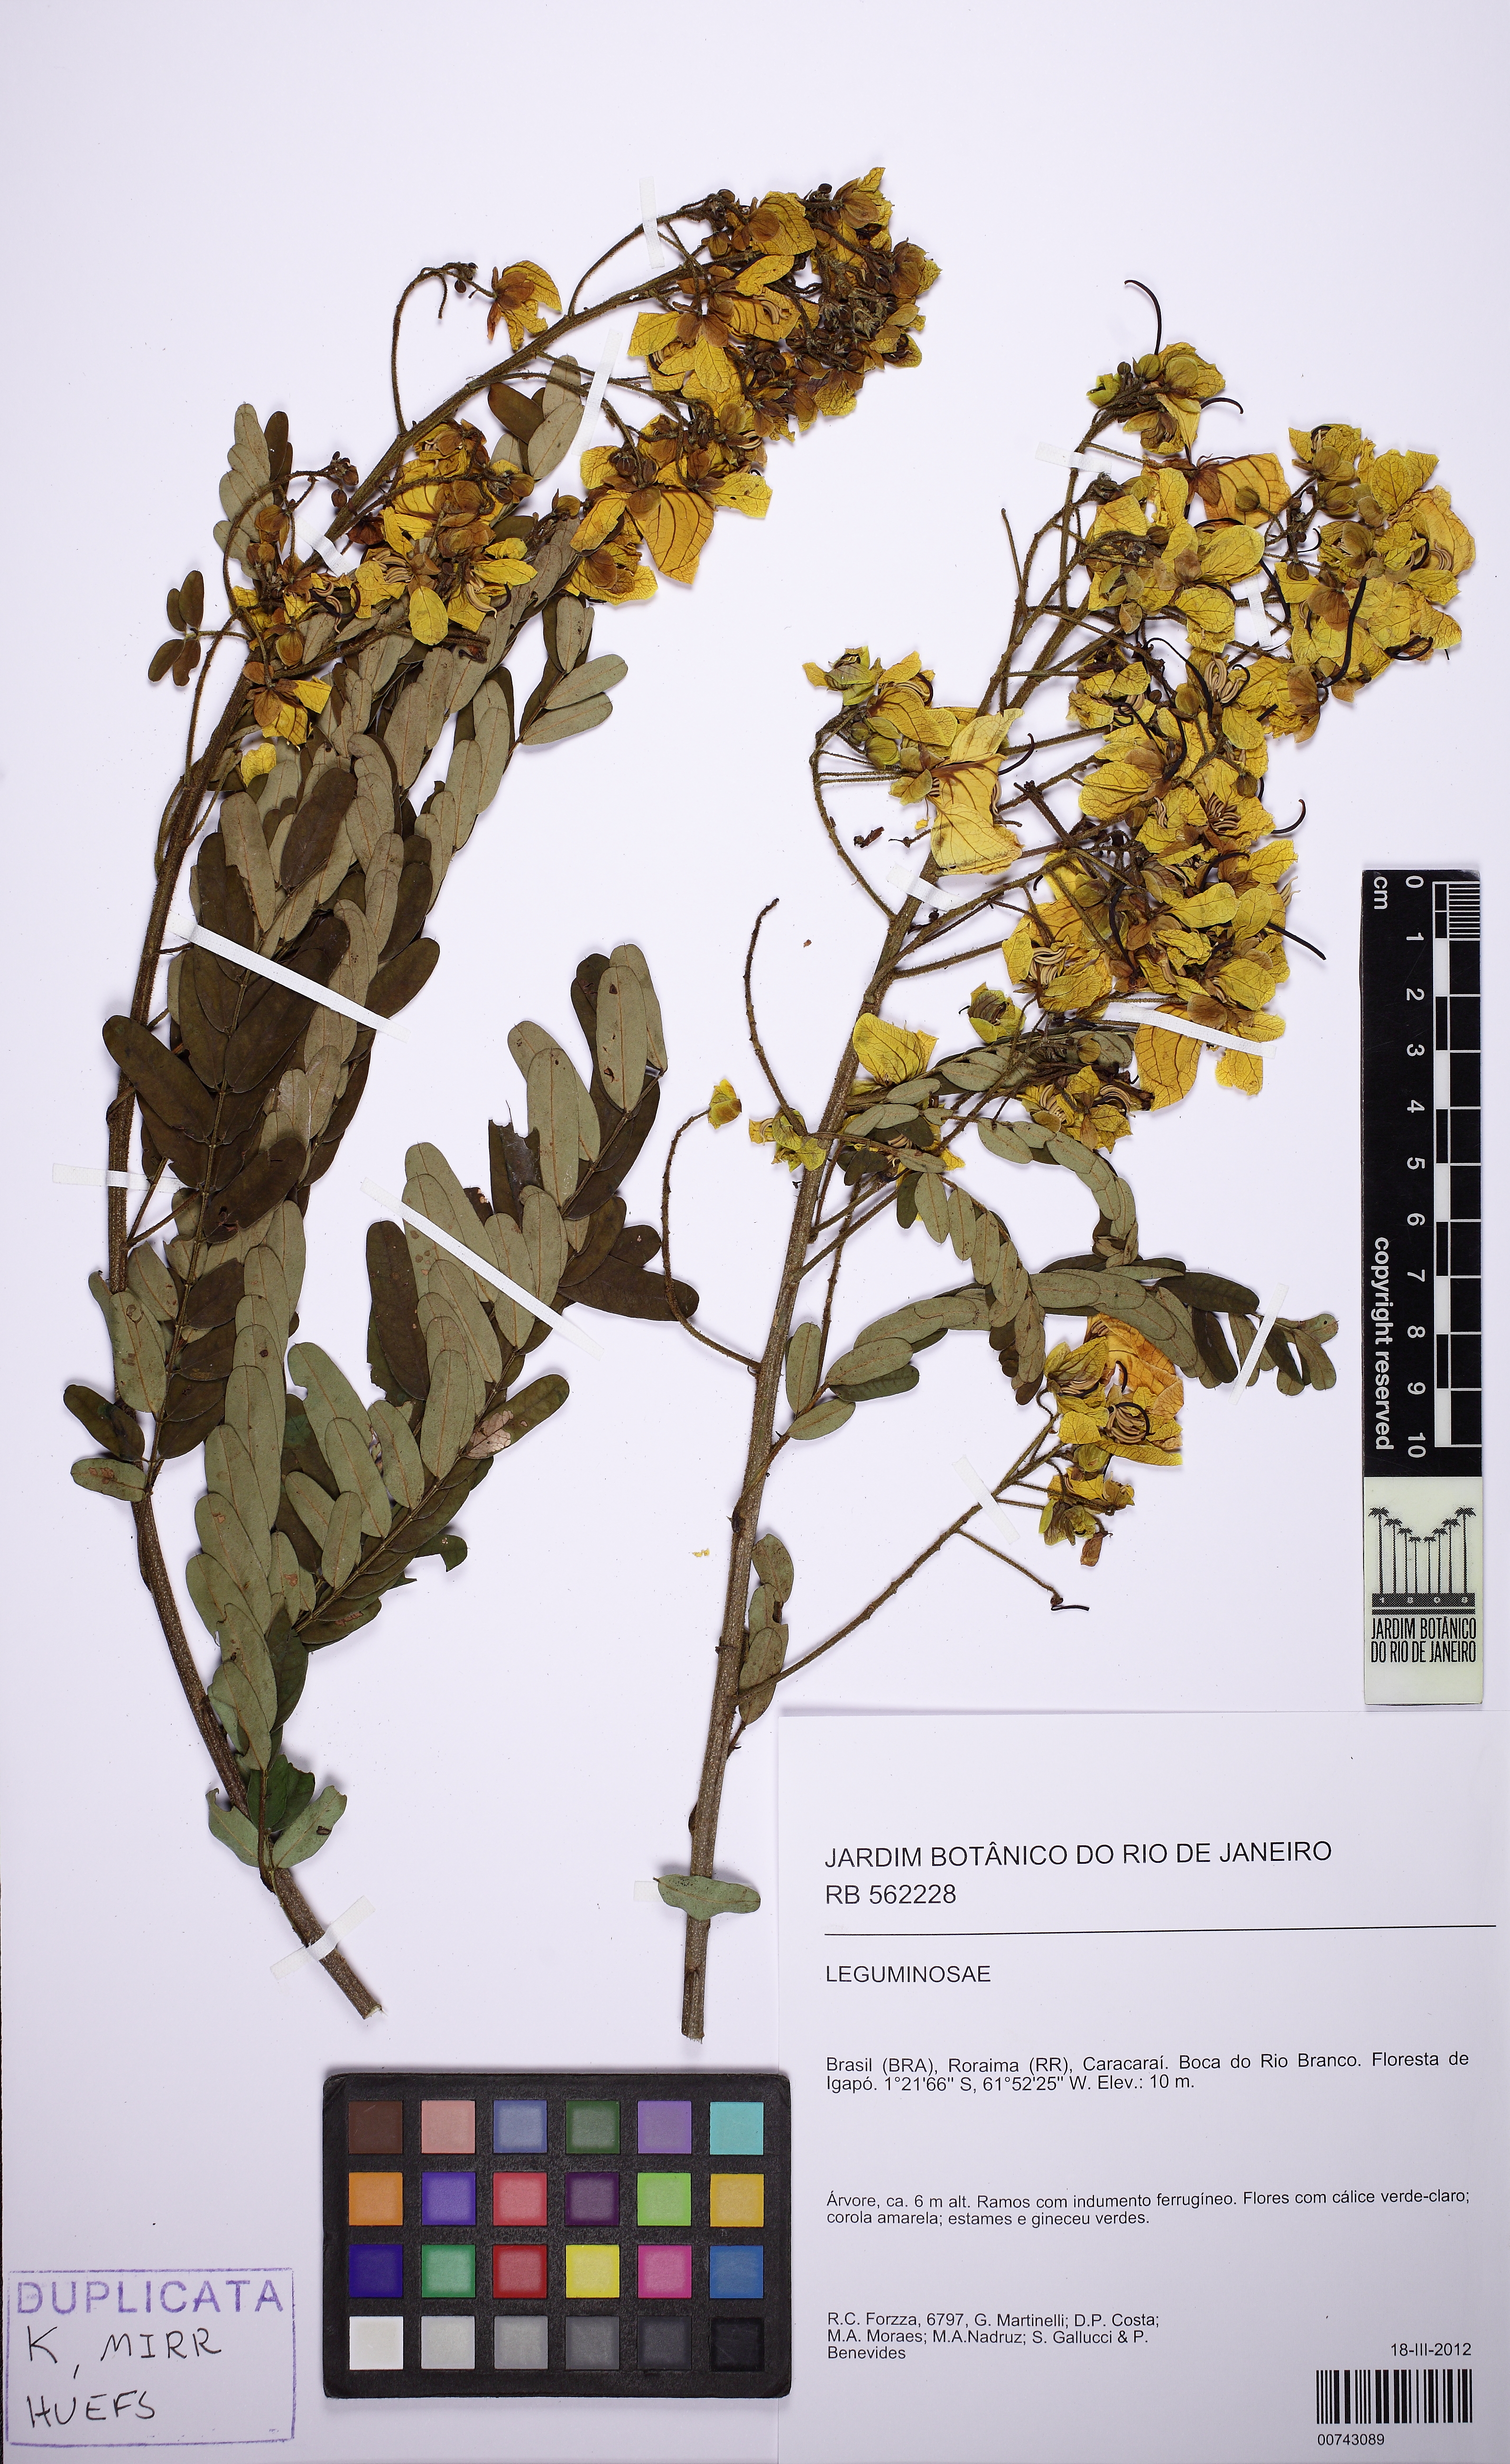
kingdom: Plantae
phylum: Tracheophyta
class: Magnoliopsida
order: Fabales
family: Fabaceae
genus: Chamaecrista
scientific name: Chamaecrista
